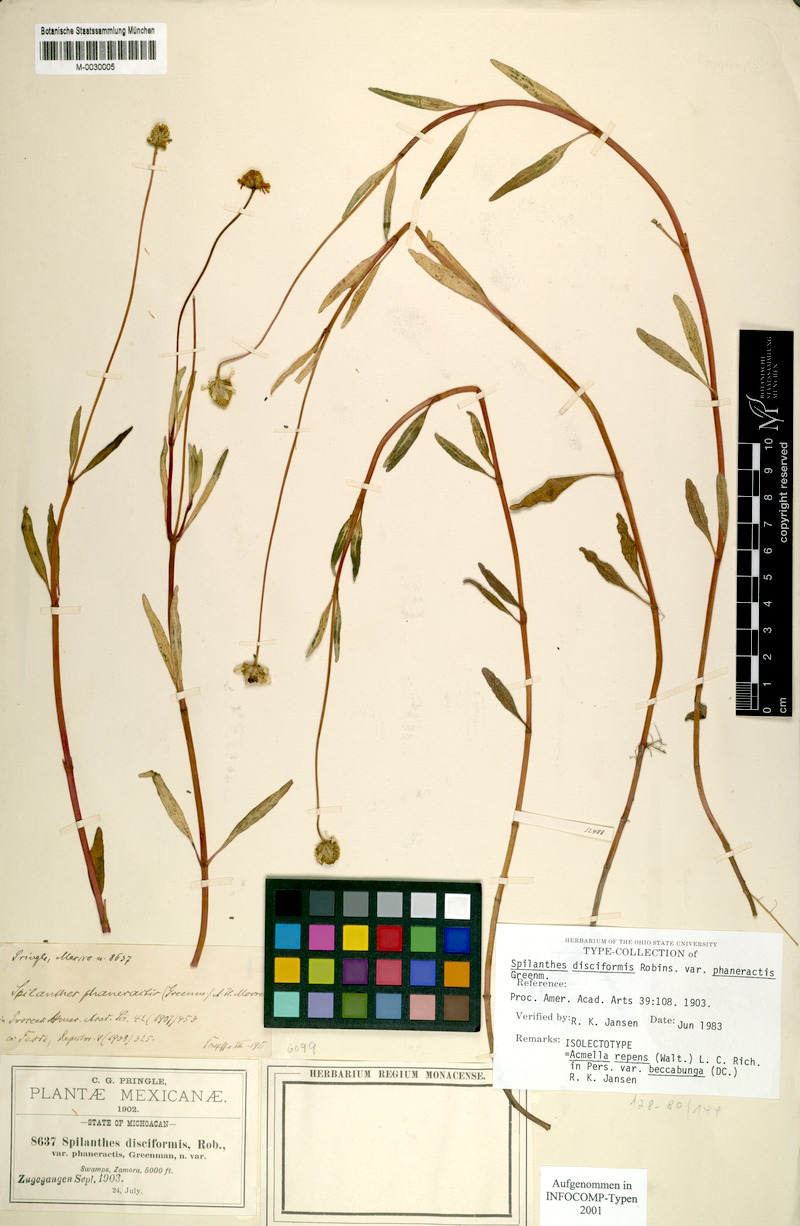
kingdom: Plantae
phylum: Tracheophyta
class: Magnoliopsida
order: Asterales
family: Asteraceae
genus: Acmella
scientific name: Acmella repens
